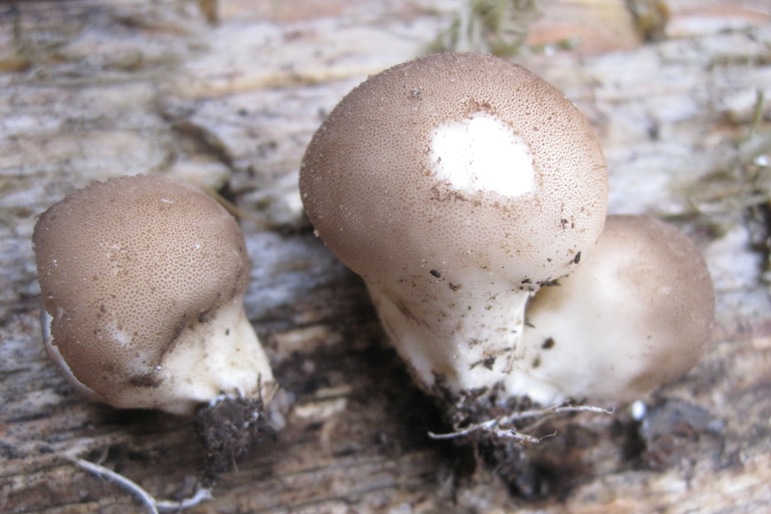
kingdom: Fungi
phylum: Basidiomycota
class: Agaricomycetes
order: Agaricales
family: Lycoperdaceae
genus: Apioperdon
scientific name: Apioperdon pyriforme
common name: pære-støvbold
